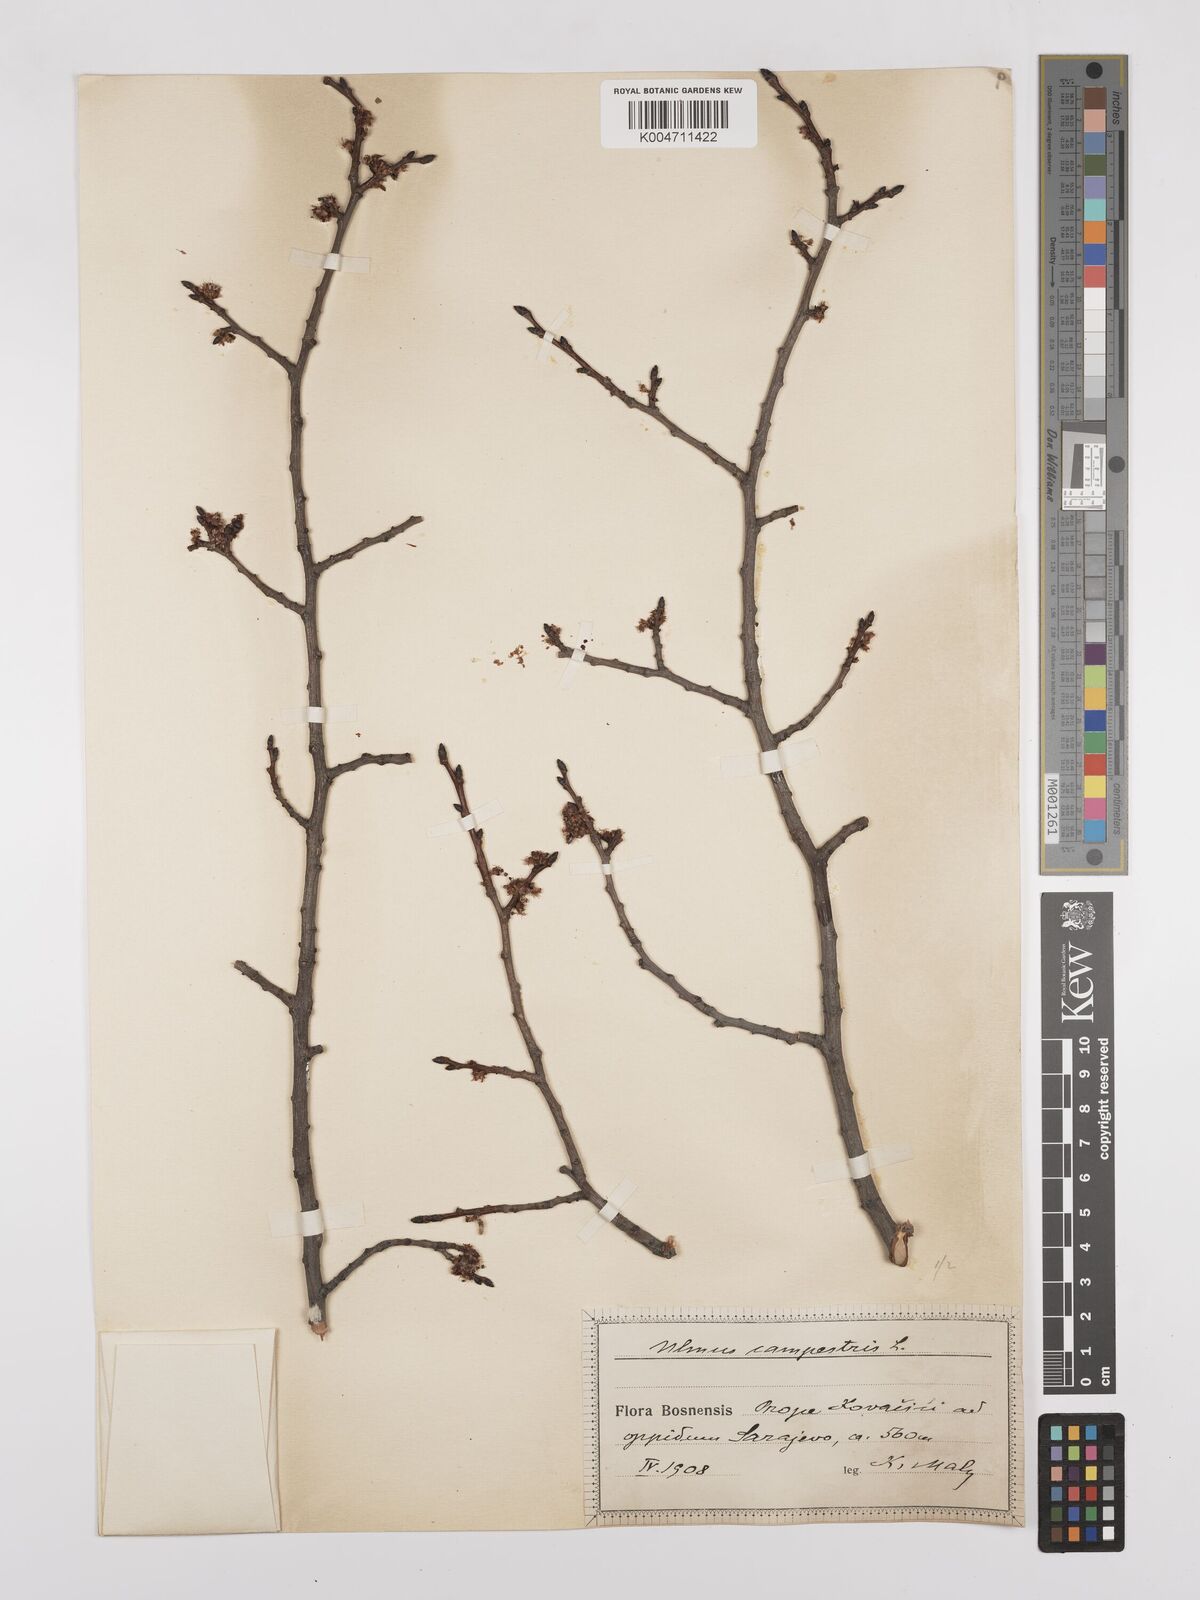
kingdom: Plantae
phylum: Tracheophyta
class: Magnoliopsida
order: Rosales
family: Ulmaceae
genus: Ulmus
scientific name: Ulmus minor
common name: Small-leaved elm
